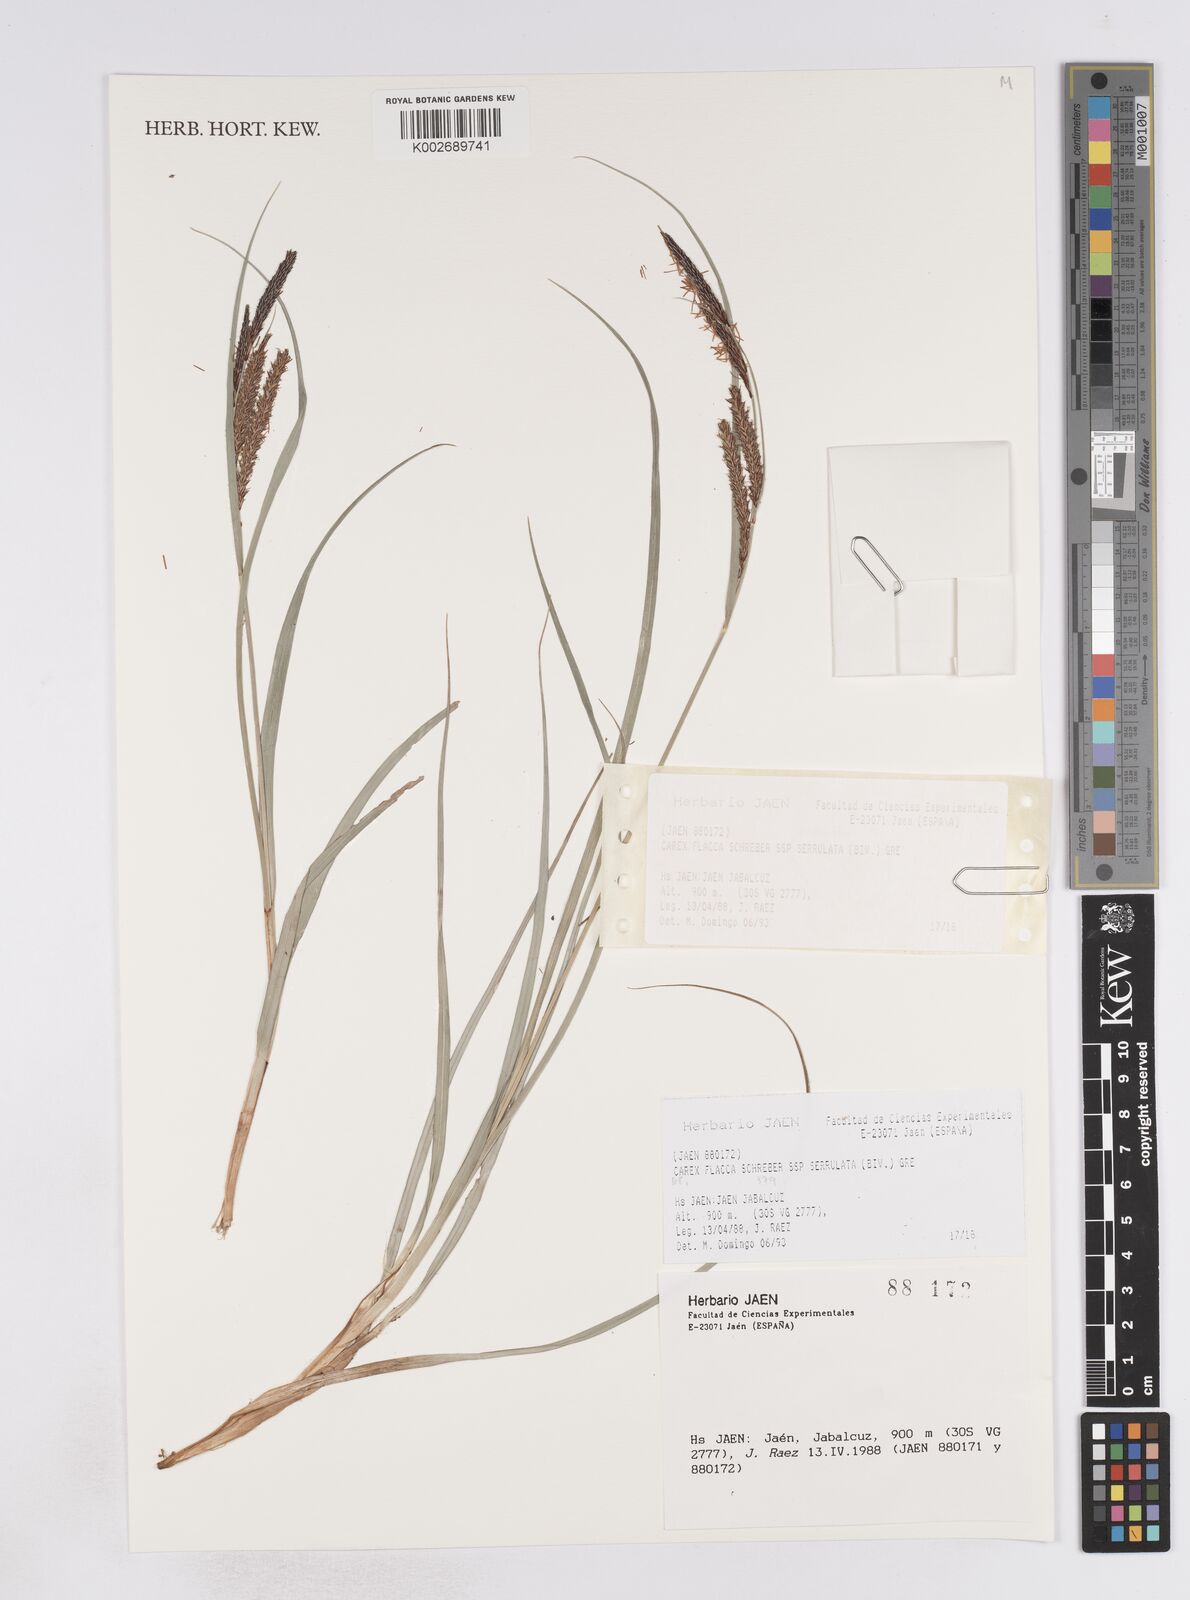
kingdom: Plantae
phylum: Tracheophyta
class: Liliopsida
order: Poales
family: Cyperaceae
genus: Carex
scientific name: Carex flacca
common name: Glaucous sedge
